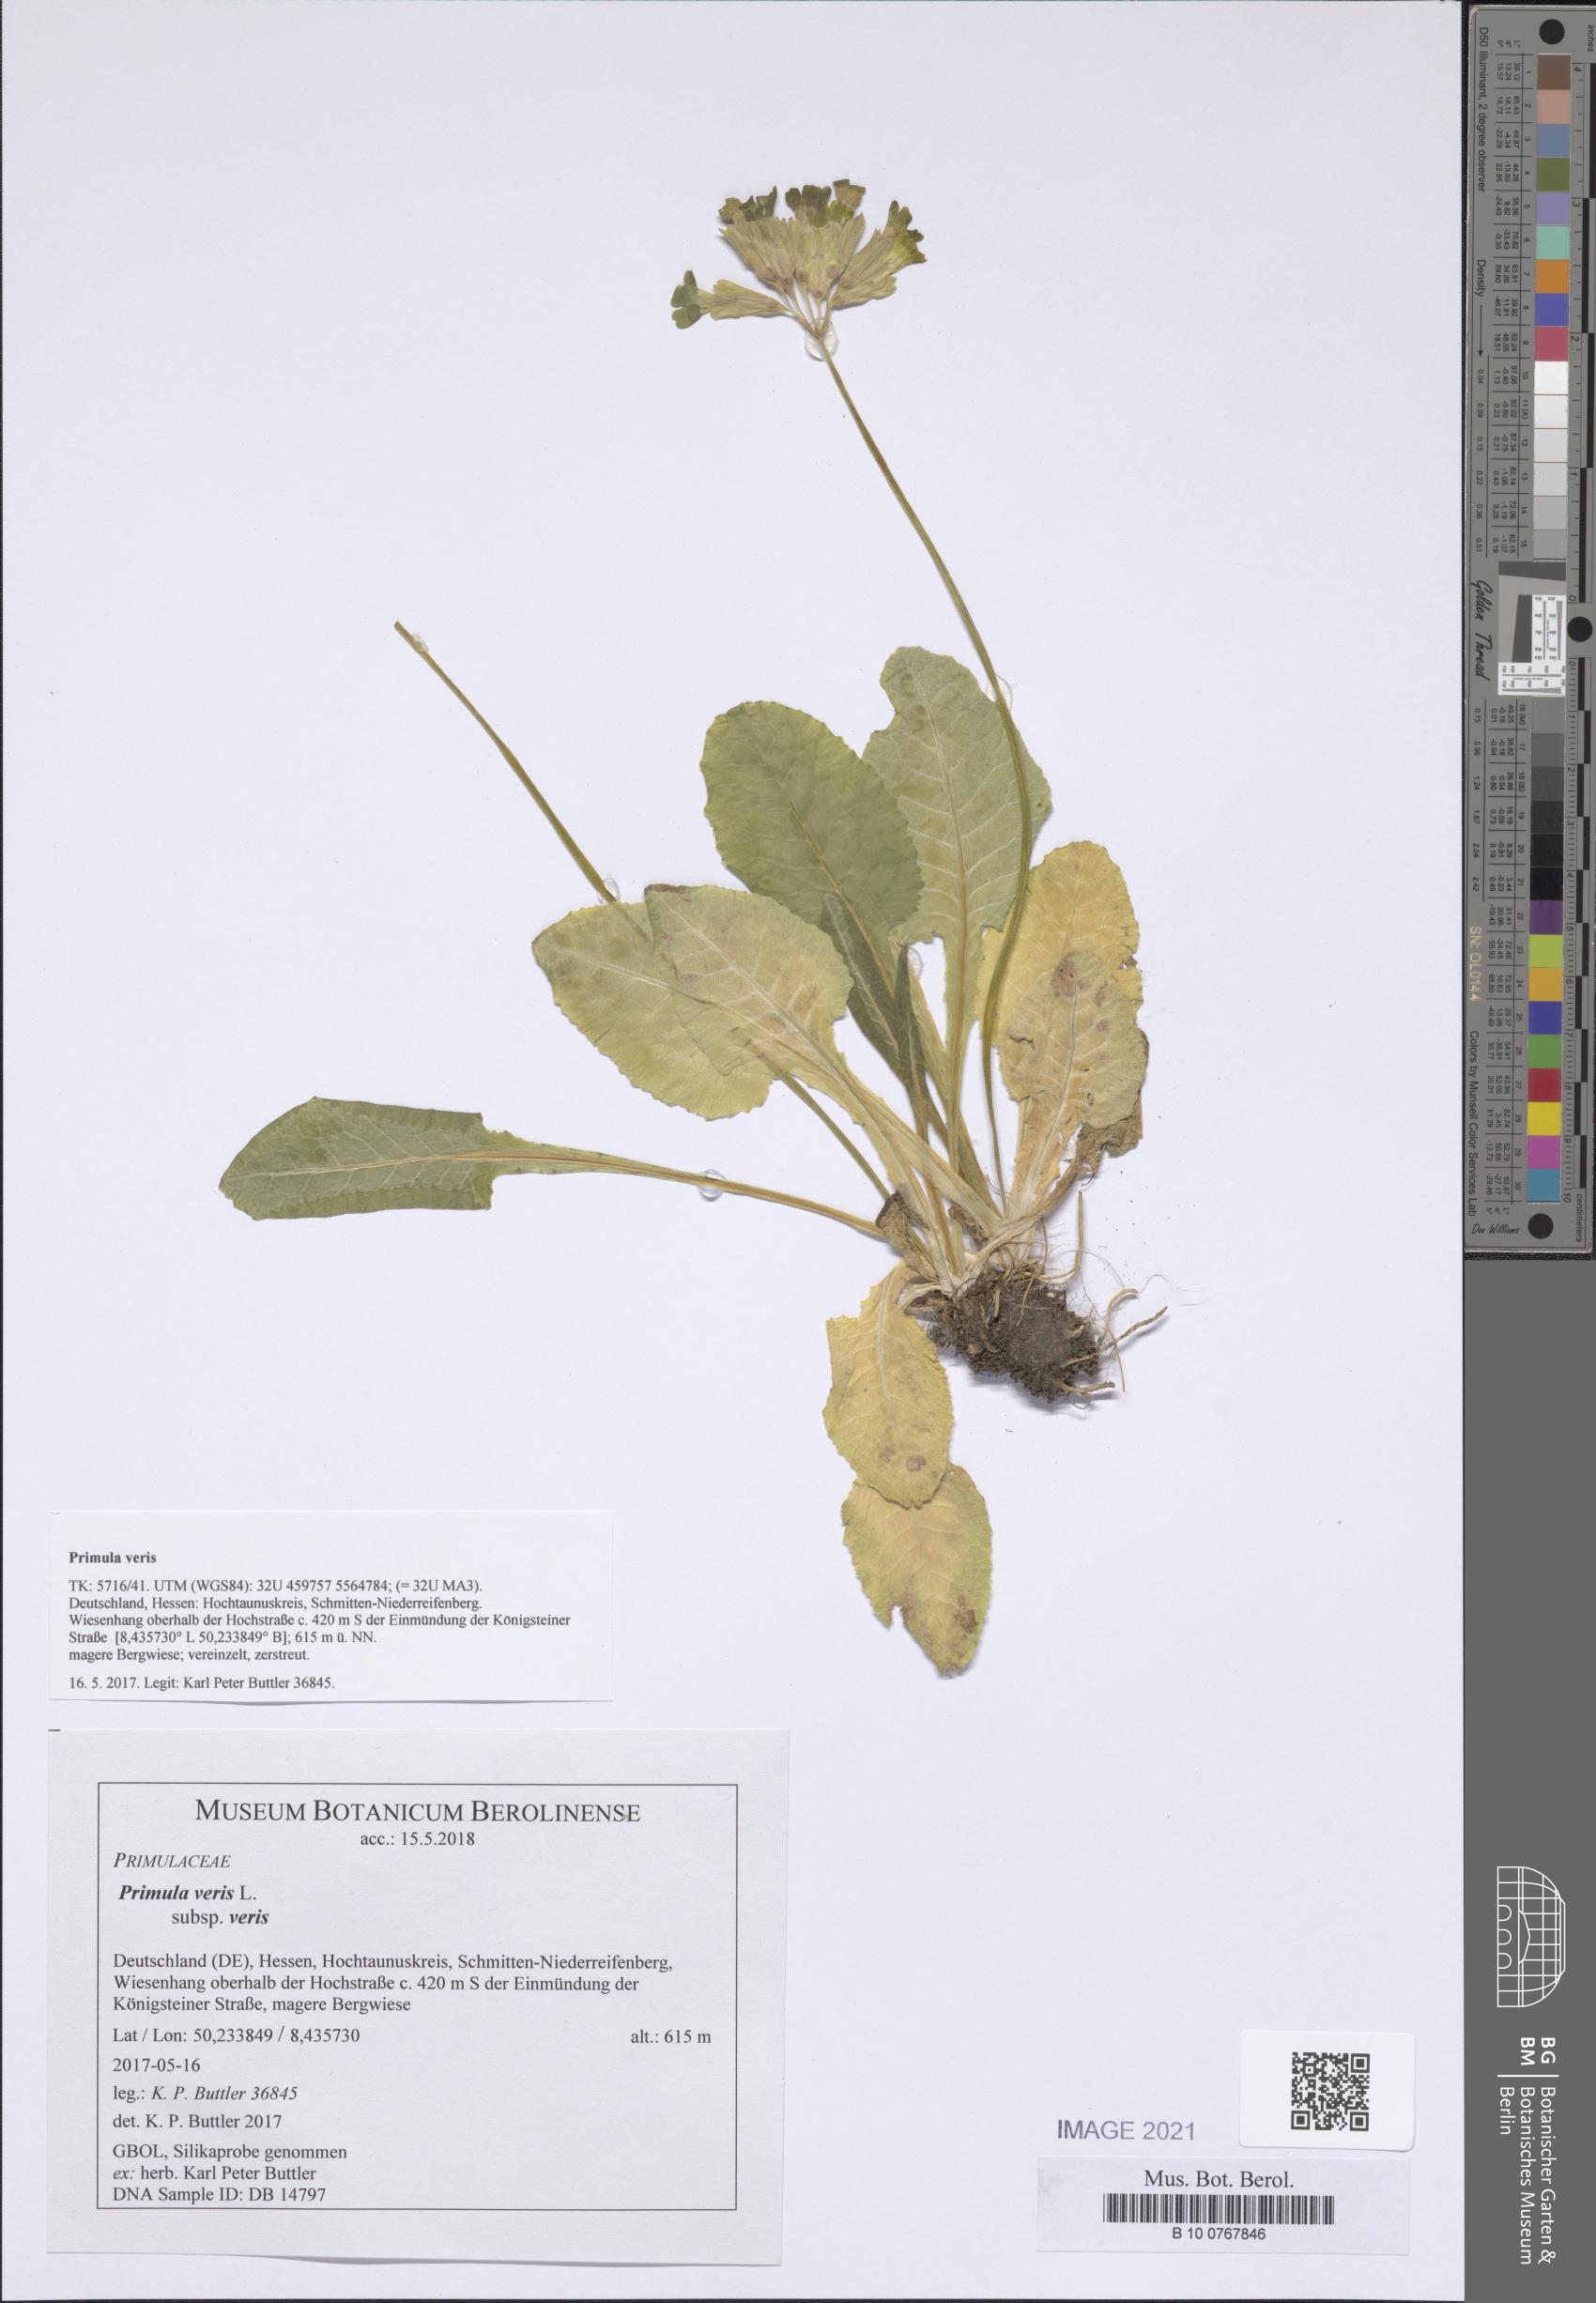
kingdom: Plantae
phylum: Tracheophyta
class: Magnoliopsida
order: Ericales
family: Primulaceae
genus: Primula
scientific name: Primula veris
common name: Cowslip
